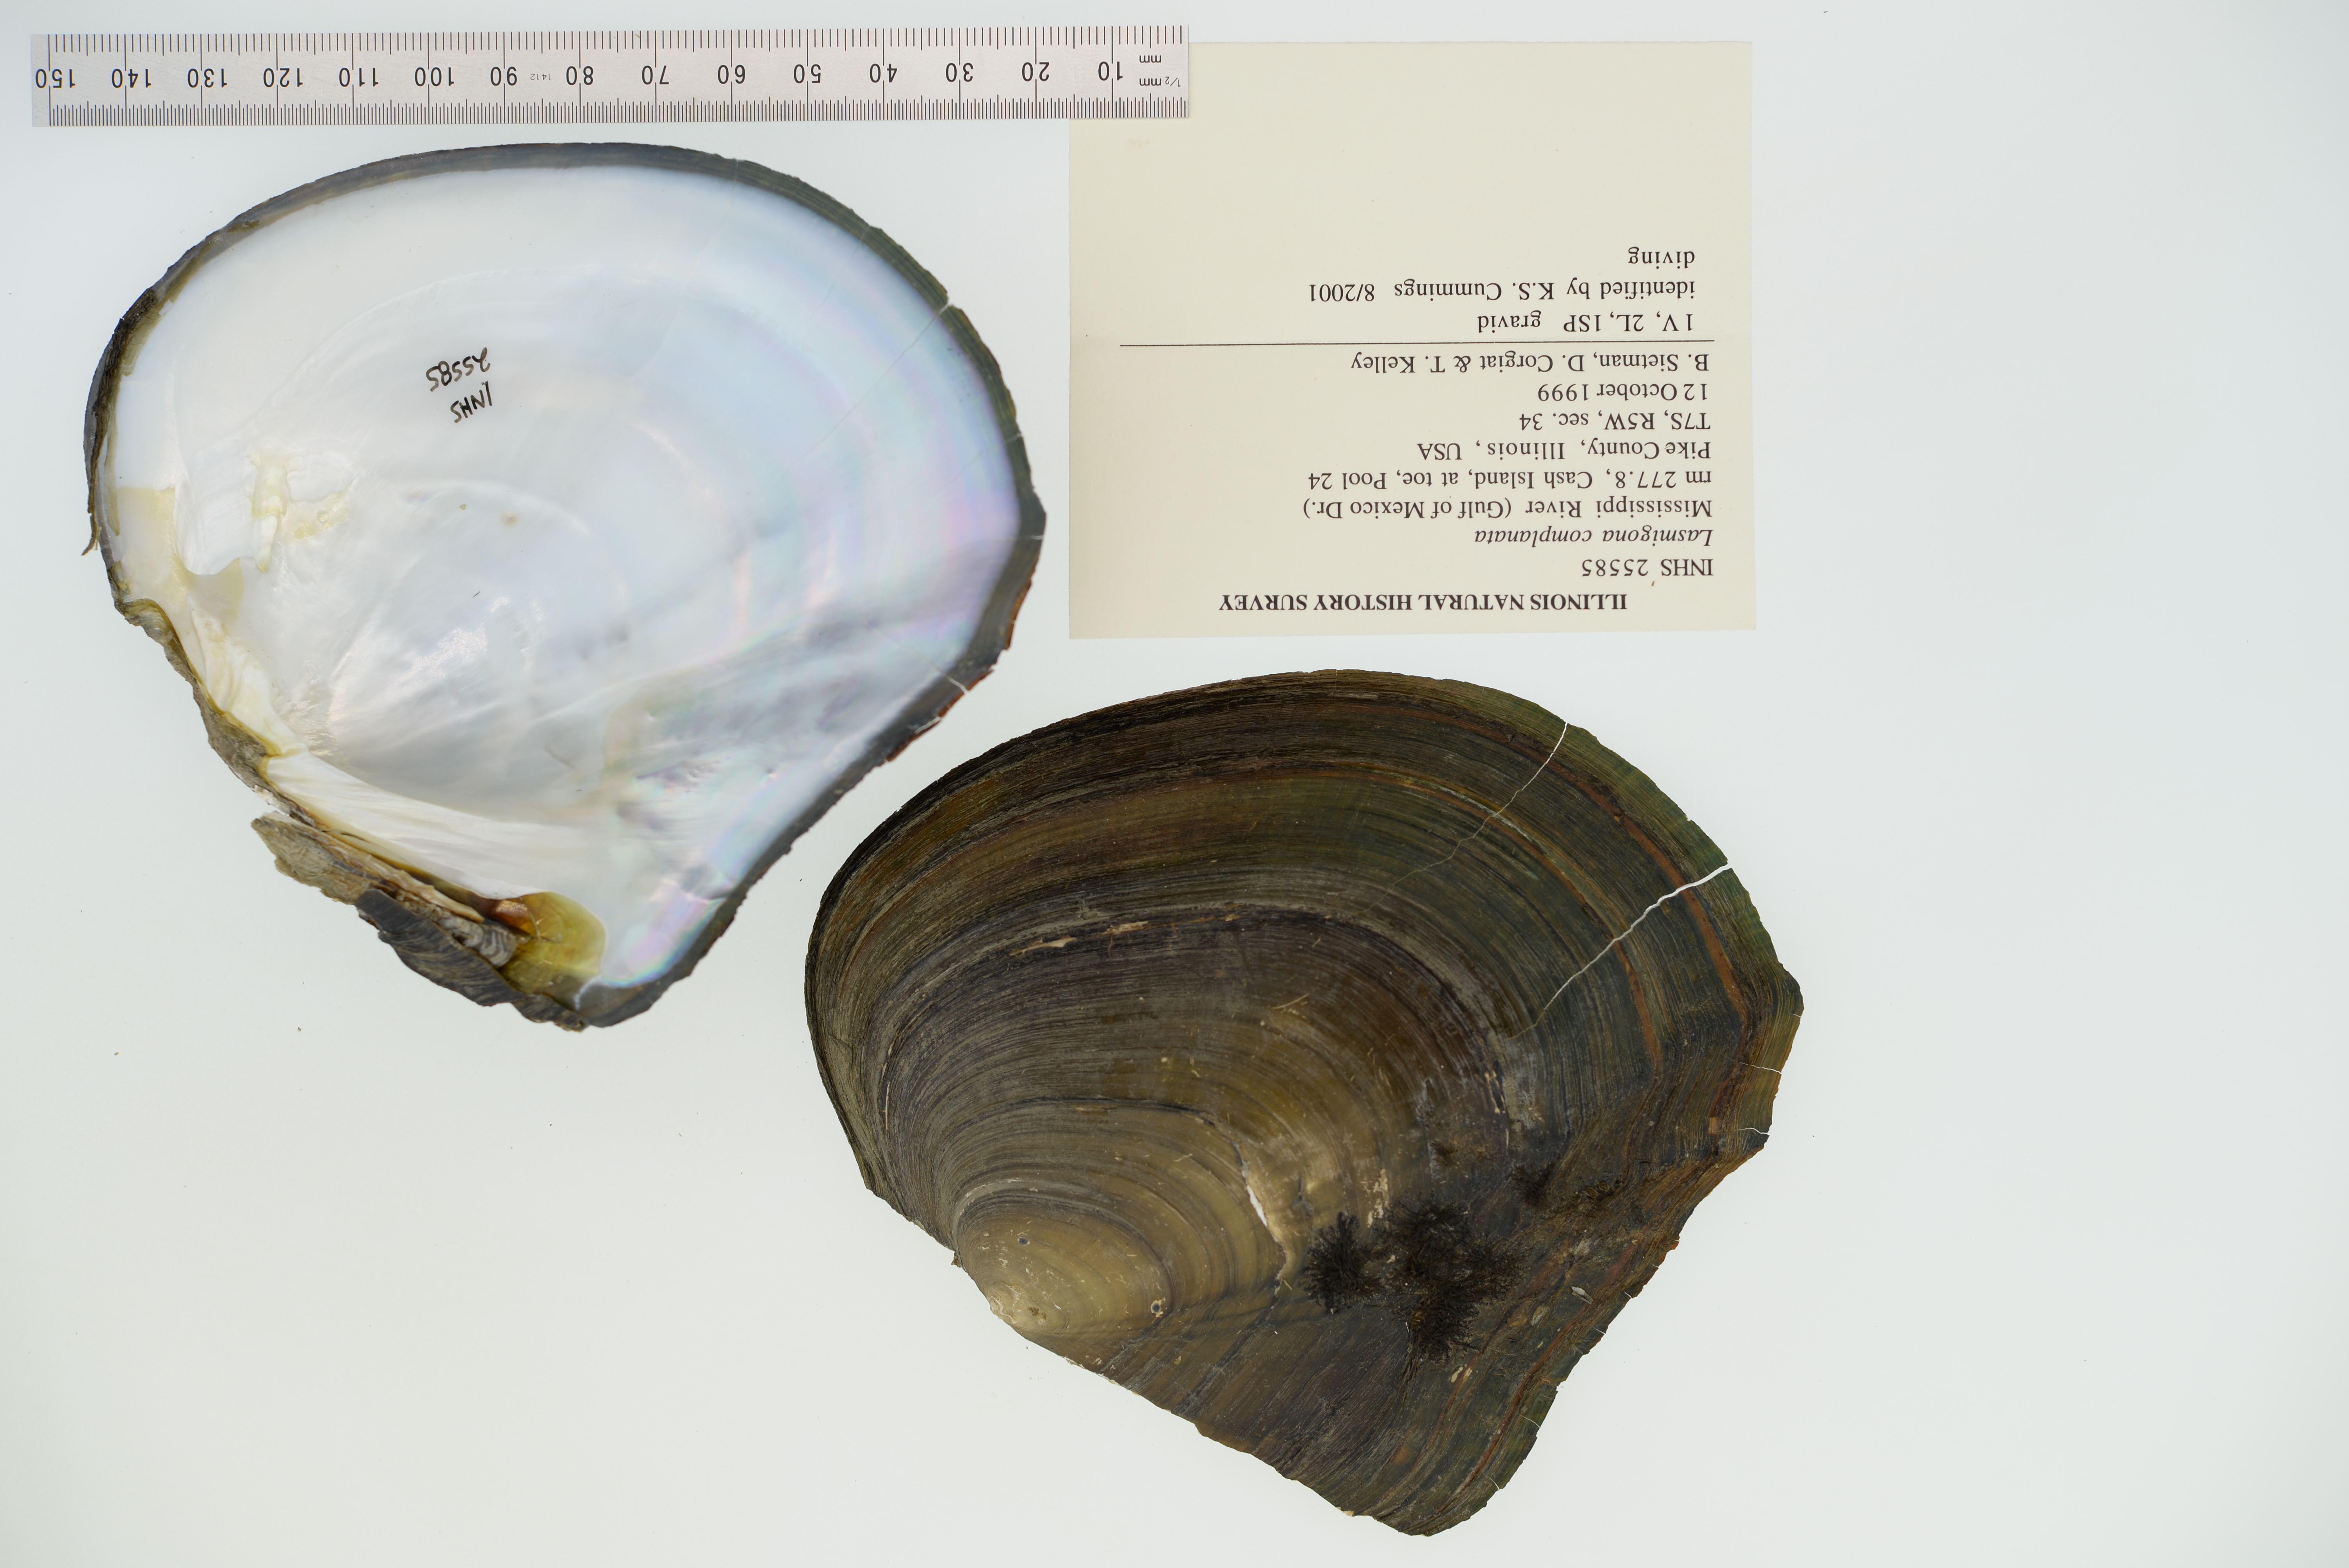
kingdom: Animalia
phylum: Mollusca
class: Bivalvia
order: Unionida
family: Unionidae
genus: Lasmigona
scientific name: Lasmigona complanata
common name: White heelsplitter
